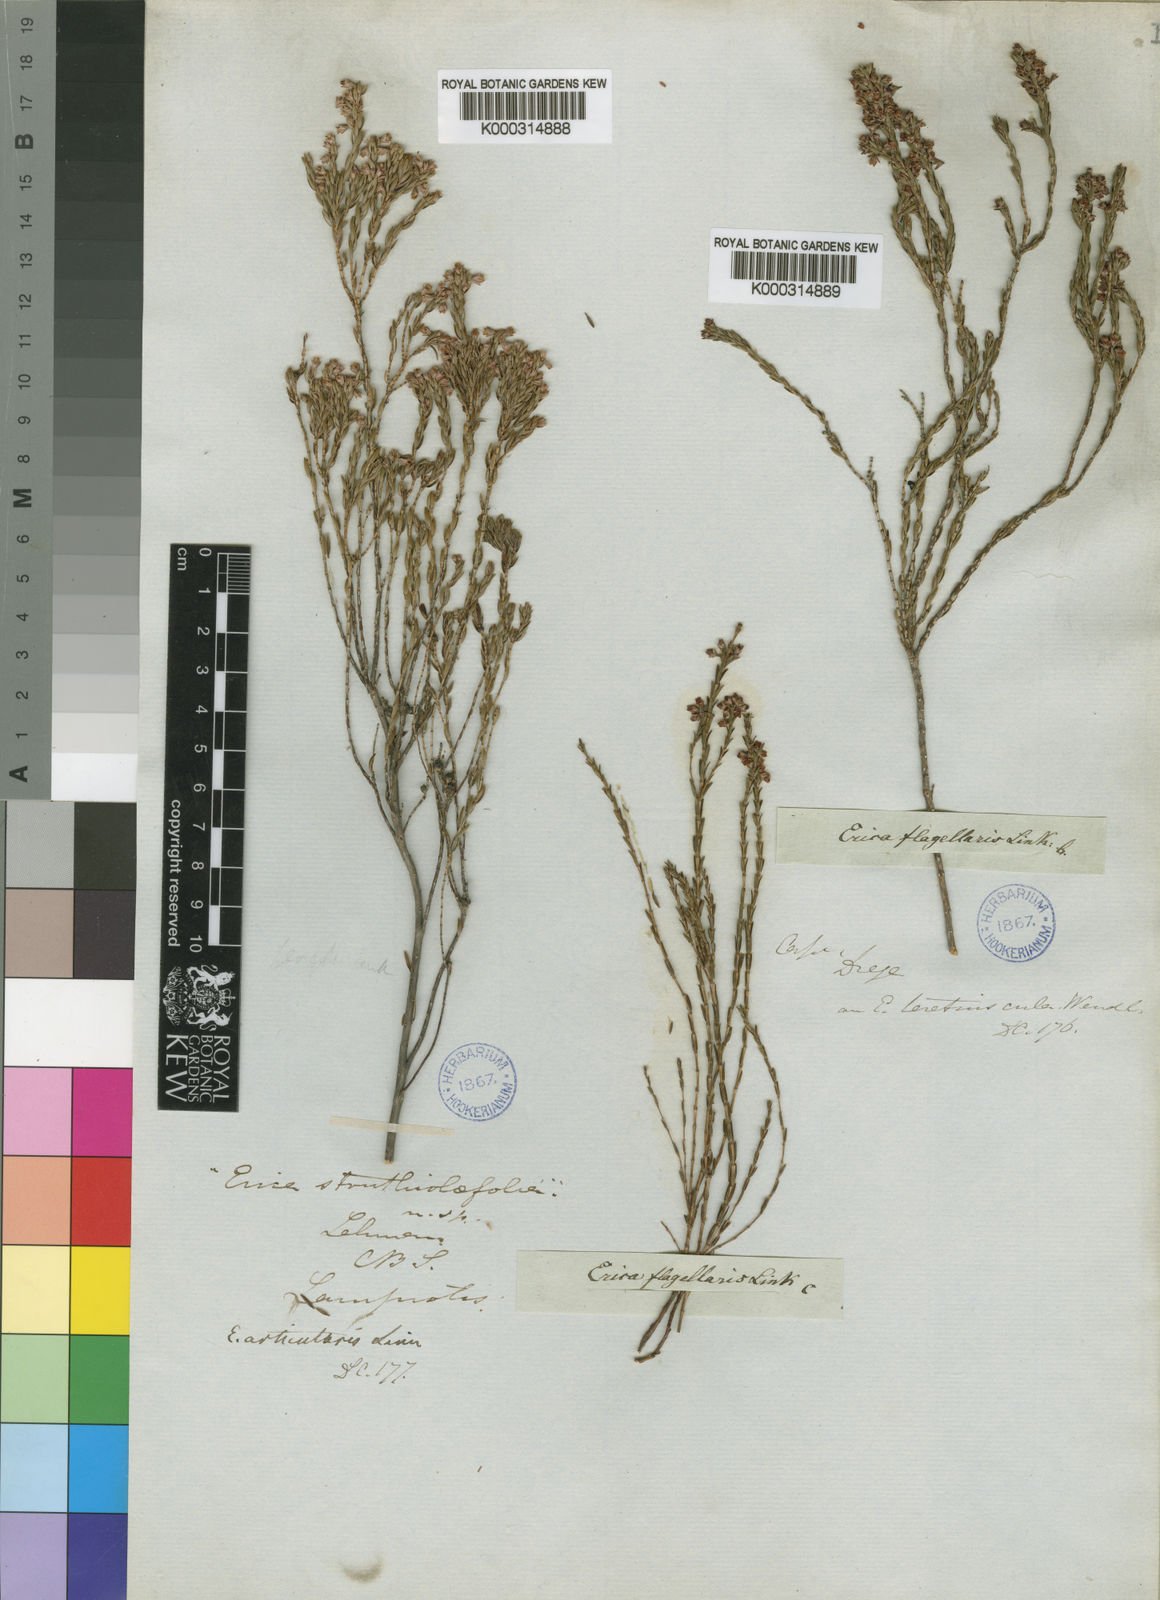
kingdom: Plantae
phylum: Tracheophyta
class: Magnoliopsida
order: Ericales
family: Ericaceae
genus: Erica
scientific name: Erica articularis
